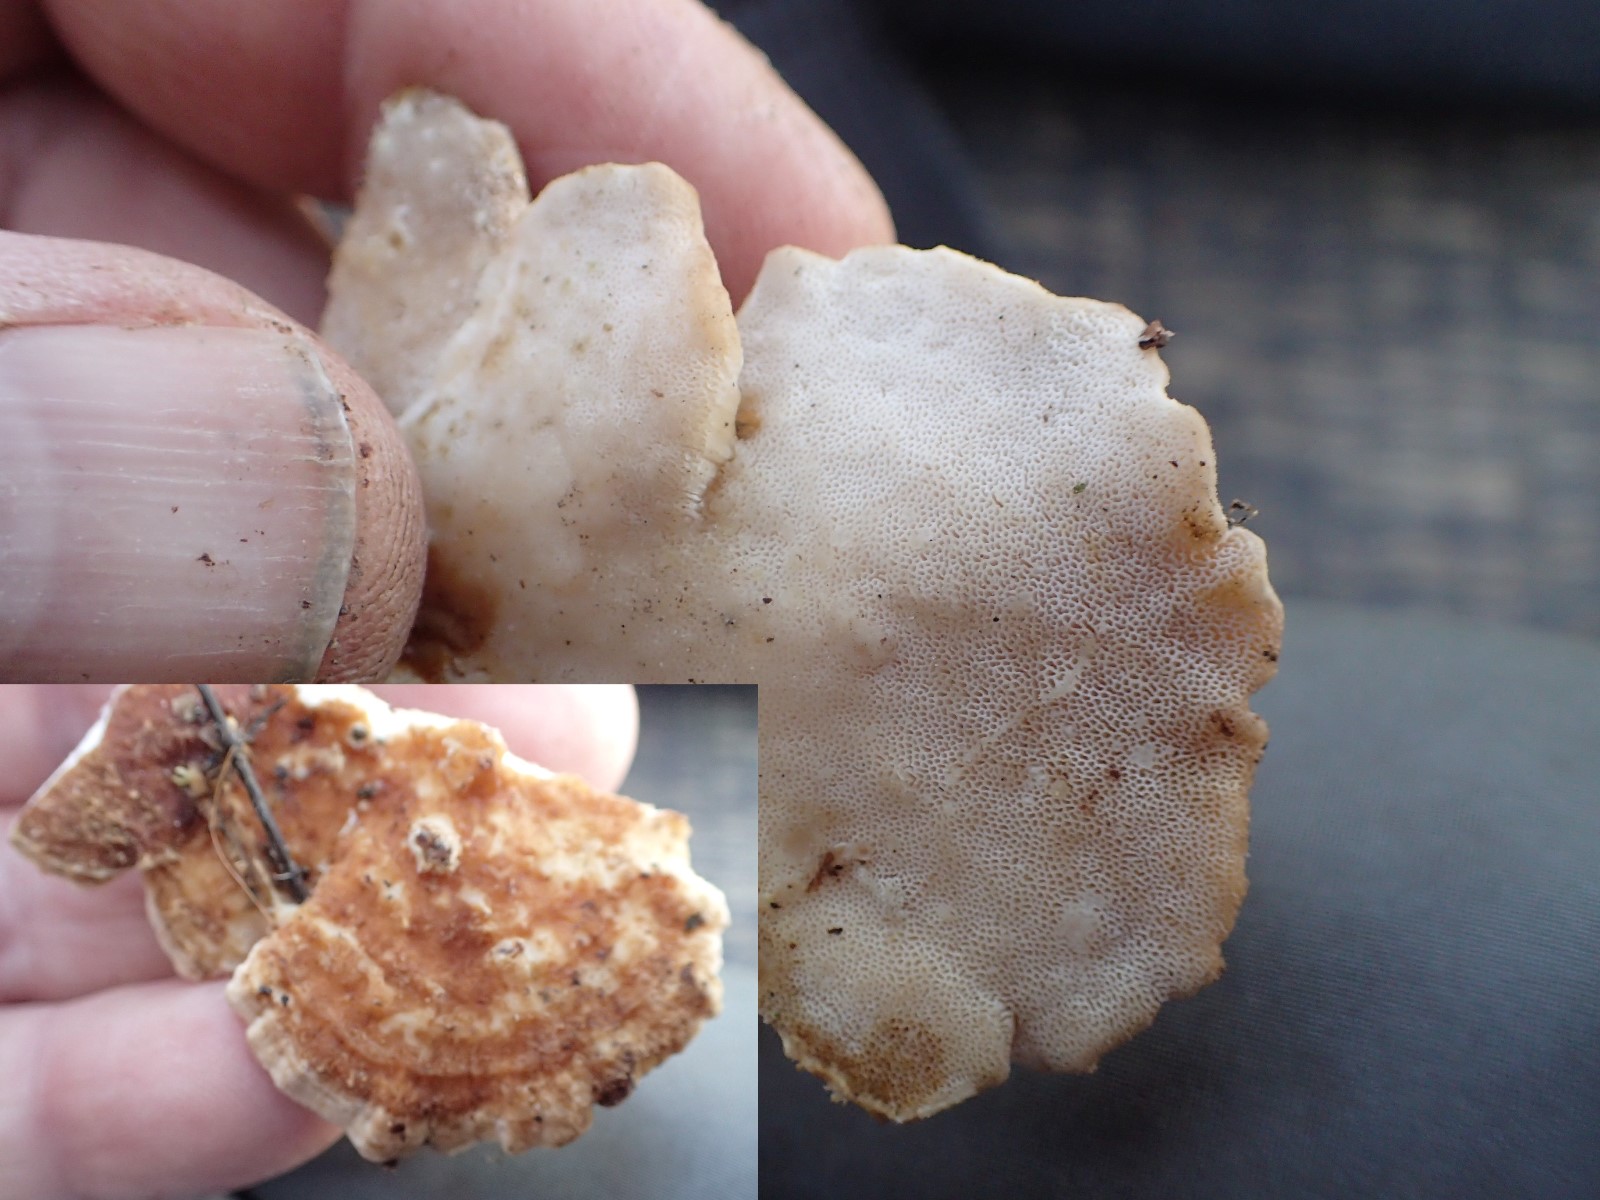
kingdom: Fungi
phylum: Basidiomycota
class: Agaricomycetes
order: Polyporales
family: Polyporaceae
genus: Trametes
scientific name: Trametes ochracea
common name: bæltet læderporesvamp
